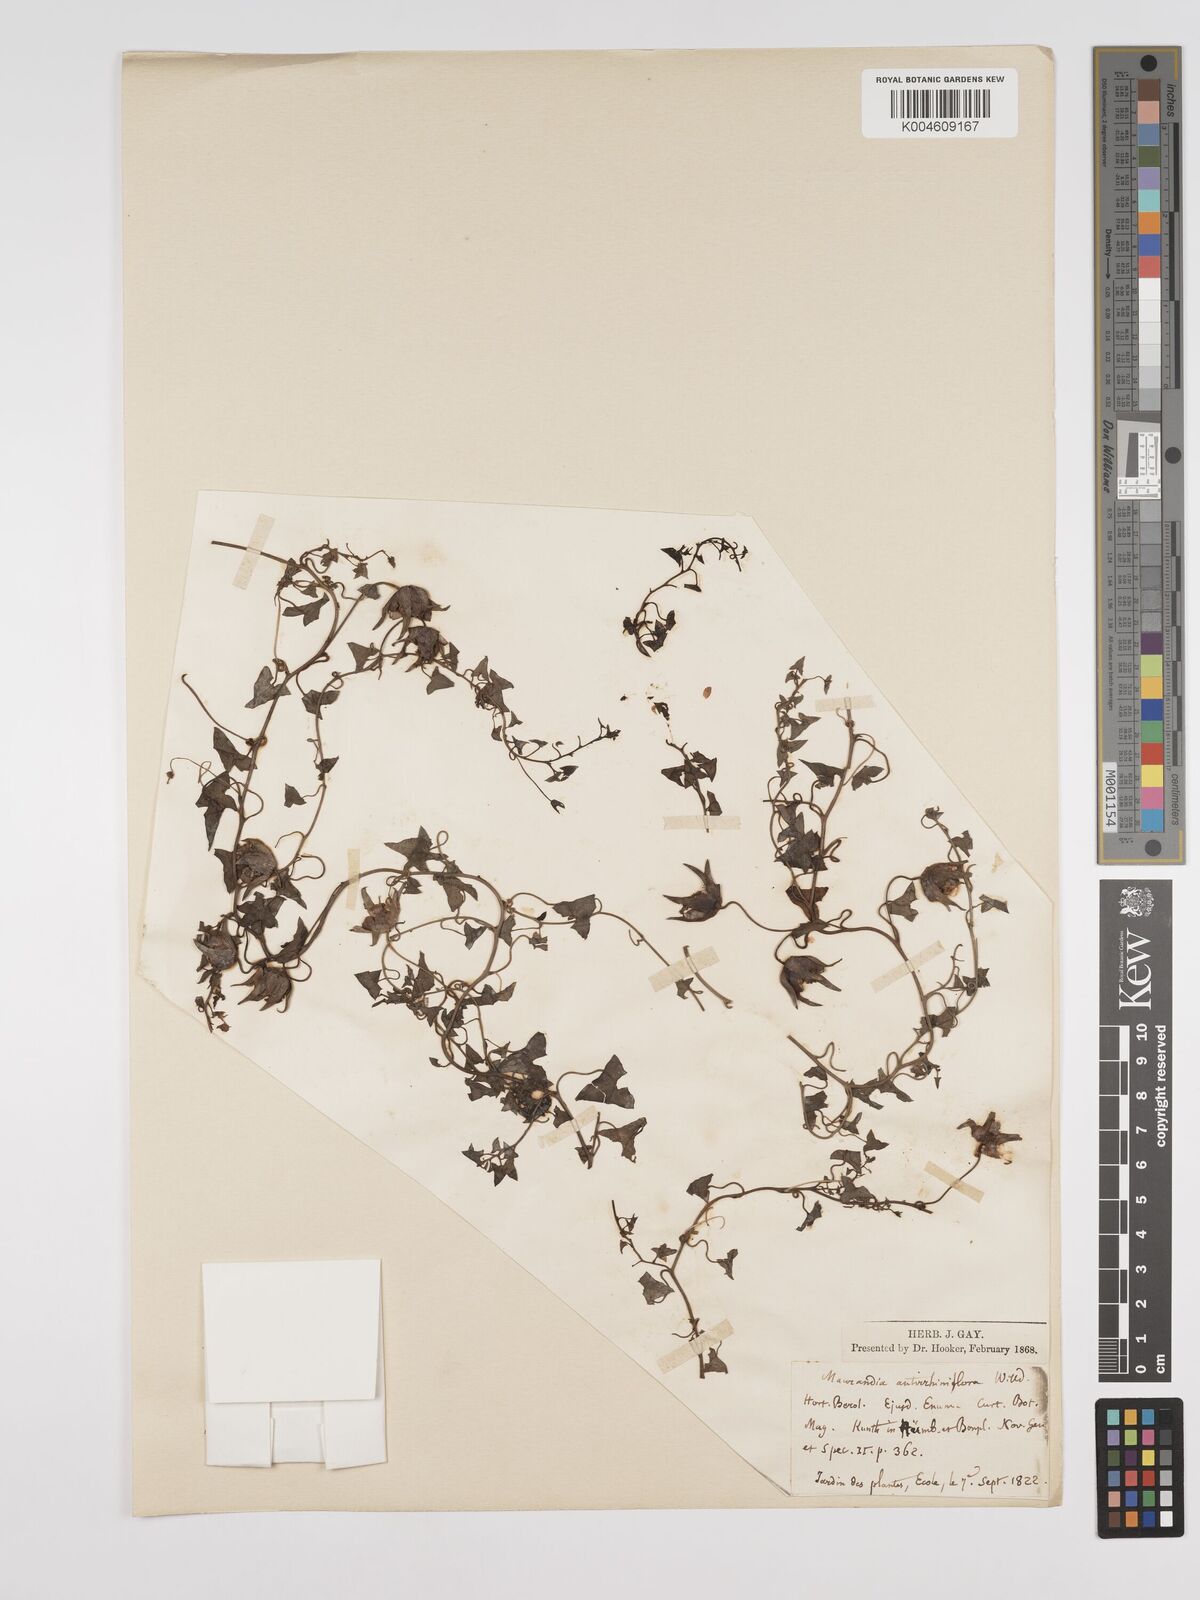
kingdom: Plantae
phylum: Tracheophyta
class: Magnoliopsida
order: Lamiales
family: Plantaginaceae
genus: Maurandya
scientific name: Maurandya
